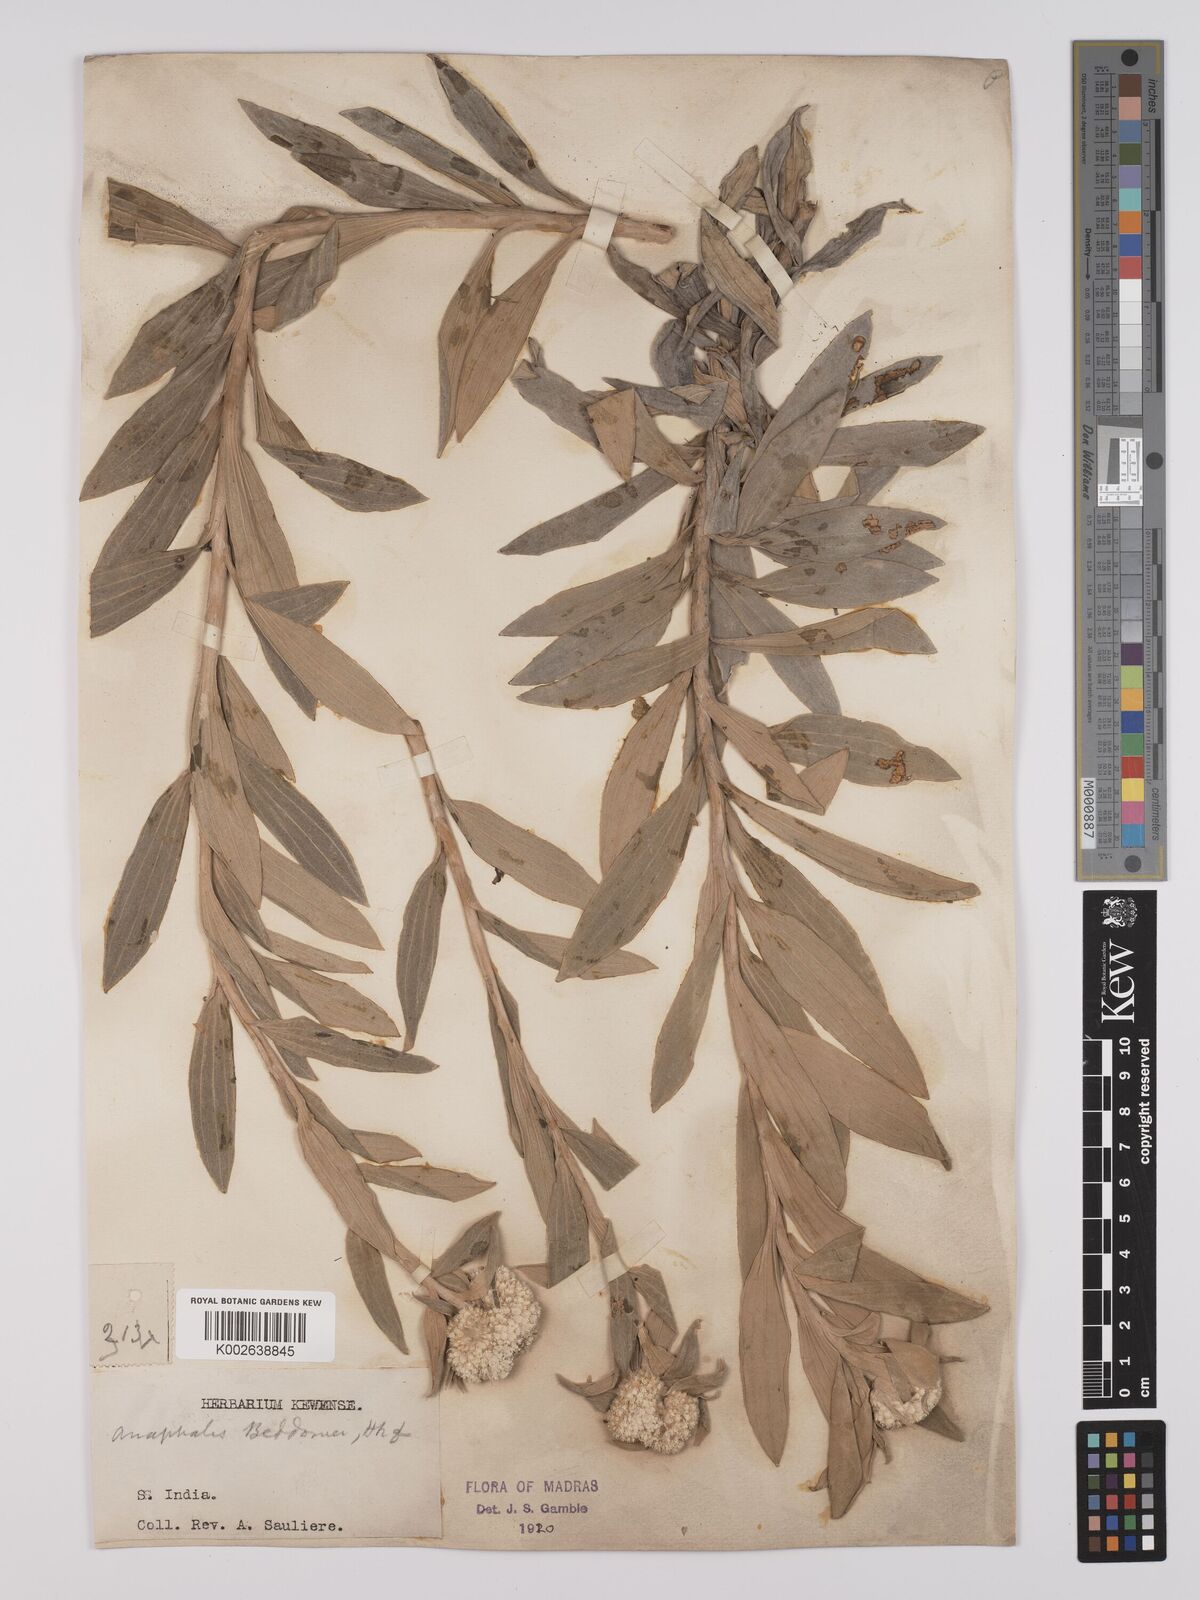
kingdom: Plantae
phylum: Tracheophyta
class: Magnoliopsida
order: Asterales
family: Asteraceae
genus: Anaphalis
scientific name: Anaphalis beddomei
